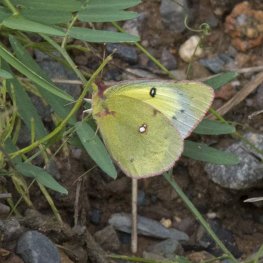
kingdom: Animalia
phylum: Arthropoda
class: Insecta
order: Lepidoptera
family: Pieridae
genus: Colias
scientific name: Colias eurytheme
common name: Orange Sulphur
